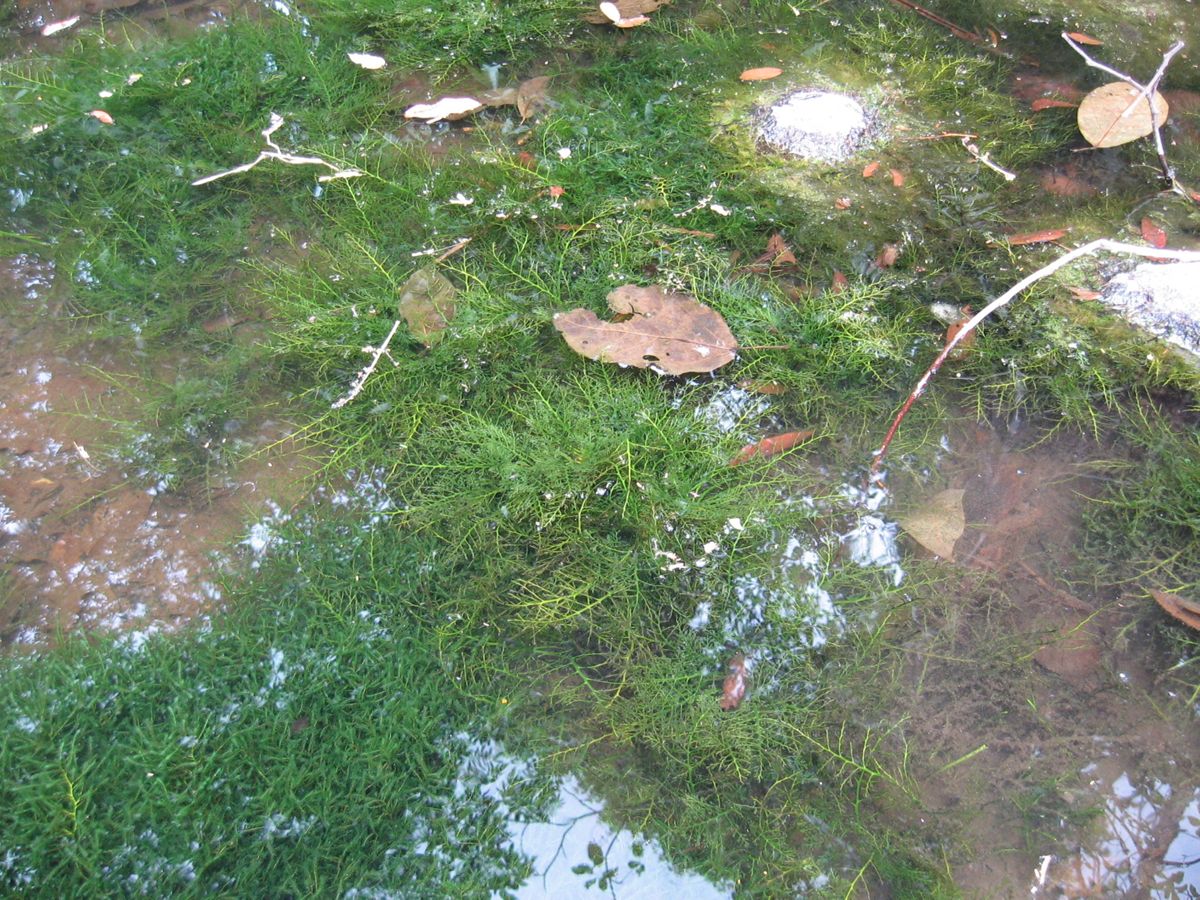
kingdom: Plantae
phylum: Tracheophyta
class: Magnoliopsida
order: Malpighiales
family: Podostemaceae
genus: Marathrum
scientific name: Marathrum
